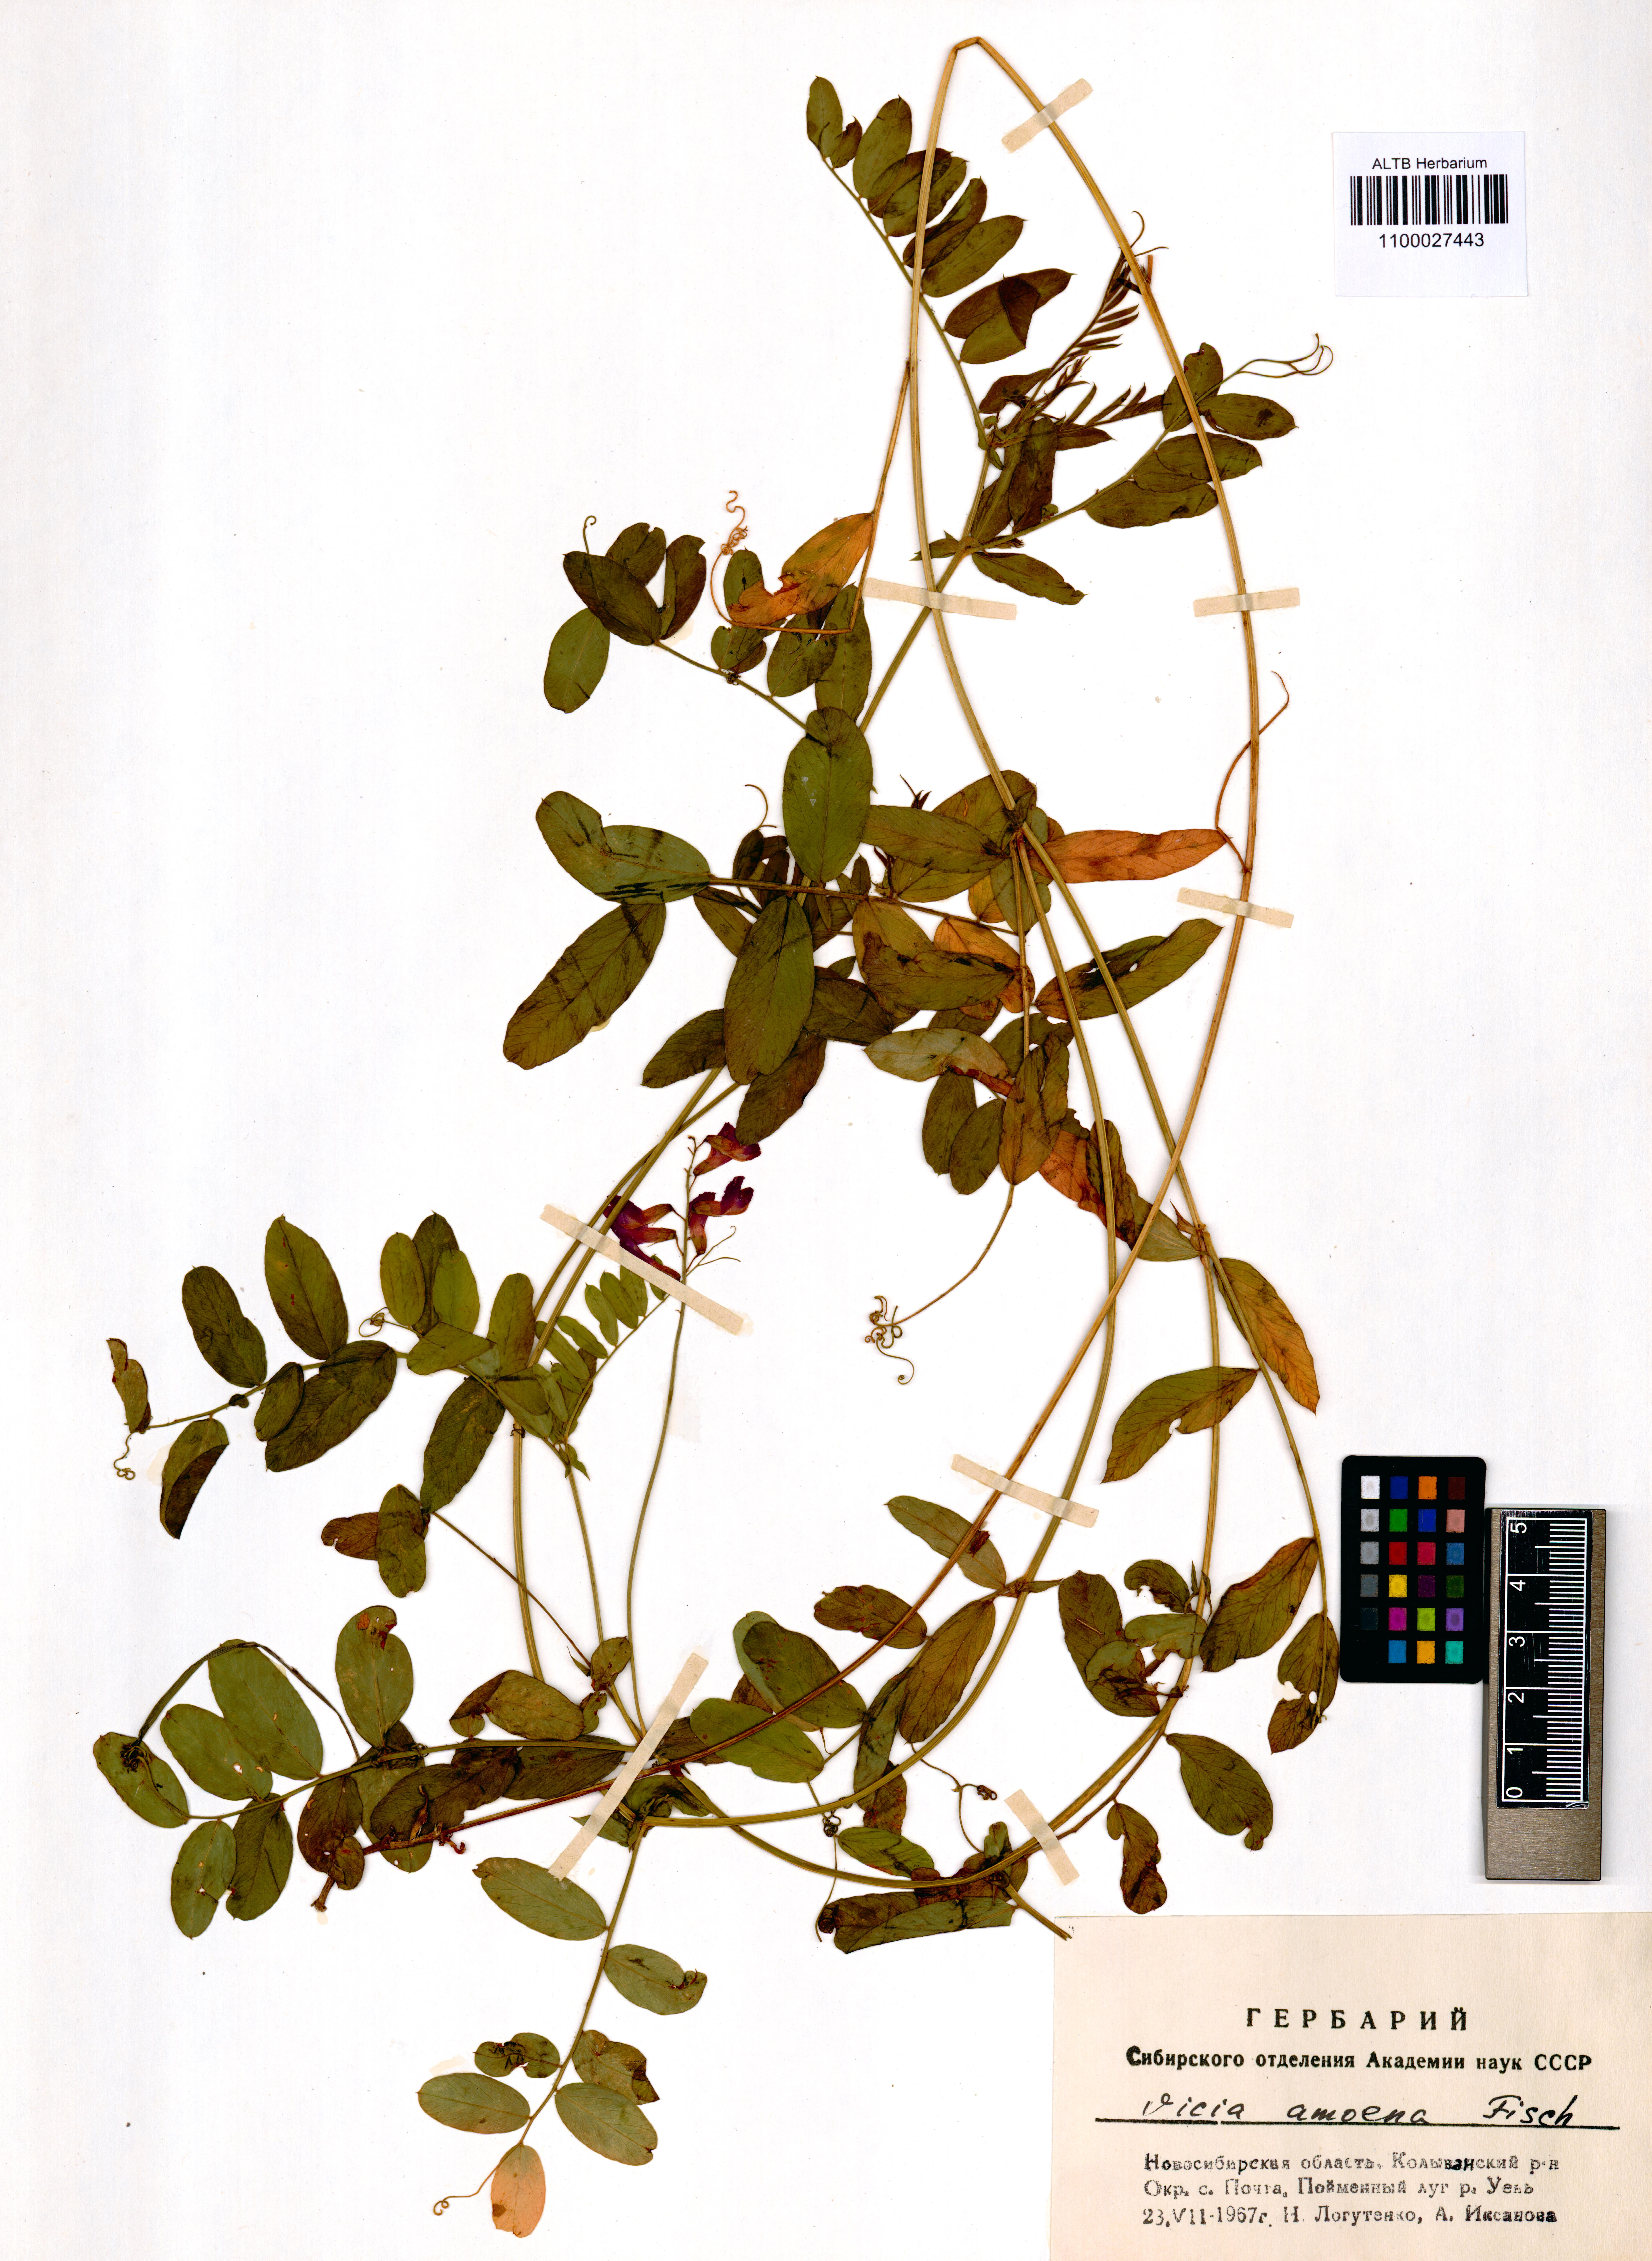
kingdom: Plantae
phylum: Tracheophyta
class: Magnoliopsida
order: Fabales
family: Fabaceae
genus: Vicia
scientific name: Vicia amoena
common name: Cheder ebs
